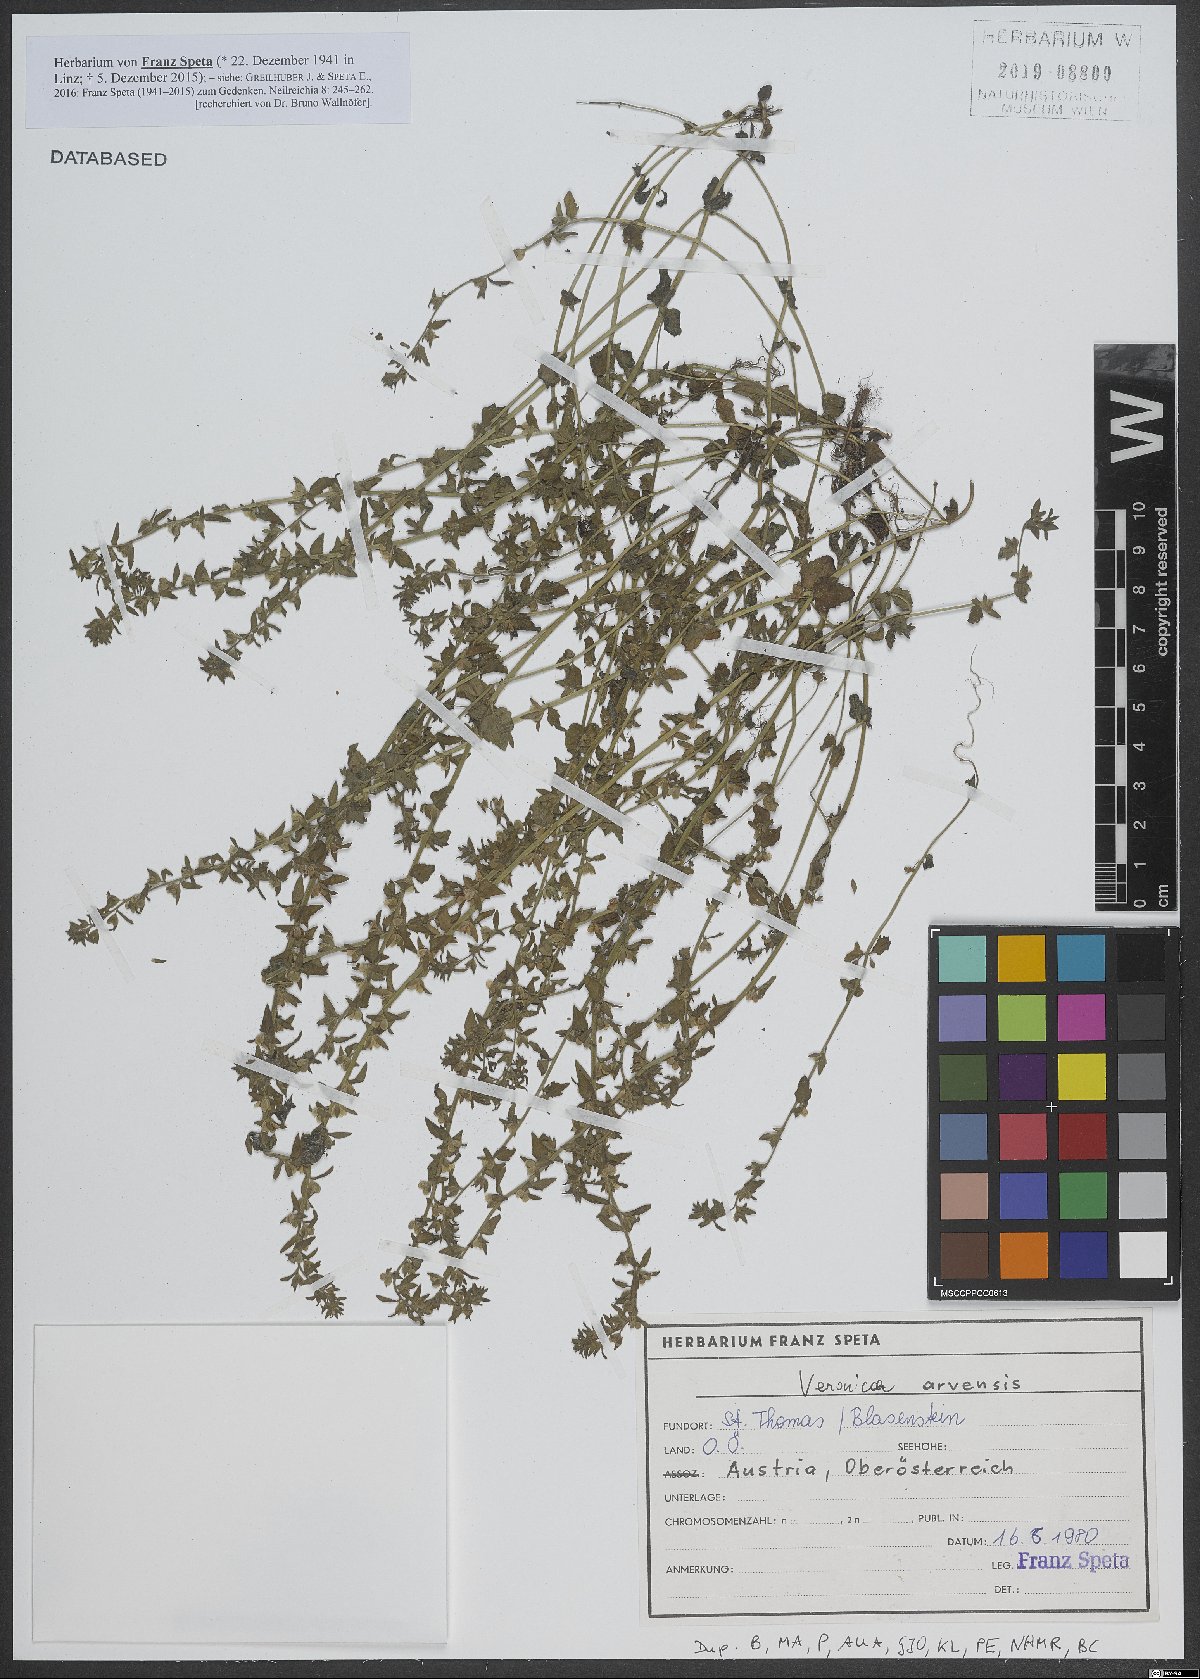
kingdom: Plantae
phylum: Tracheophyta
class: Magnoliopsida
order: Lamiales
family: Plantaginaceae
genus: Veronica
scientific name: Veronica arvensis
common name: Corn speedwell
